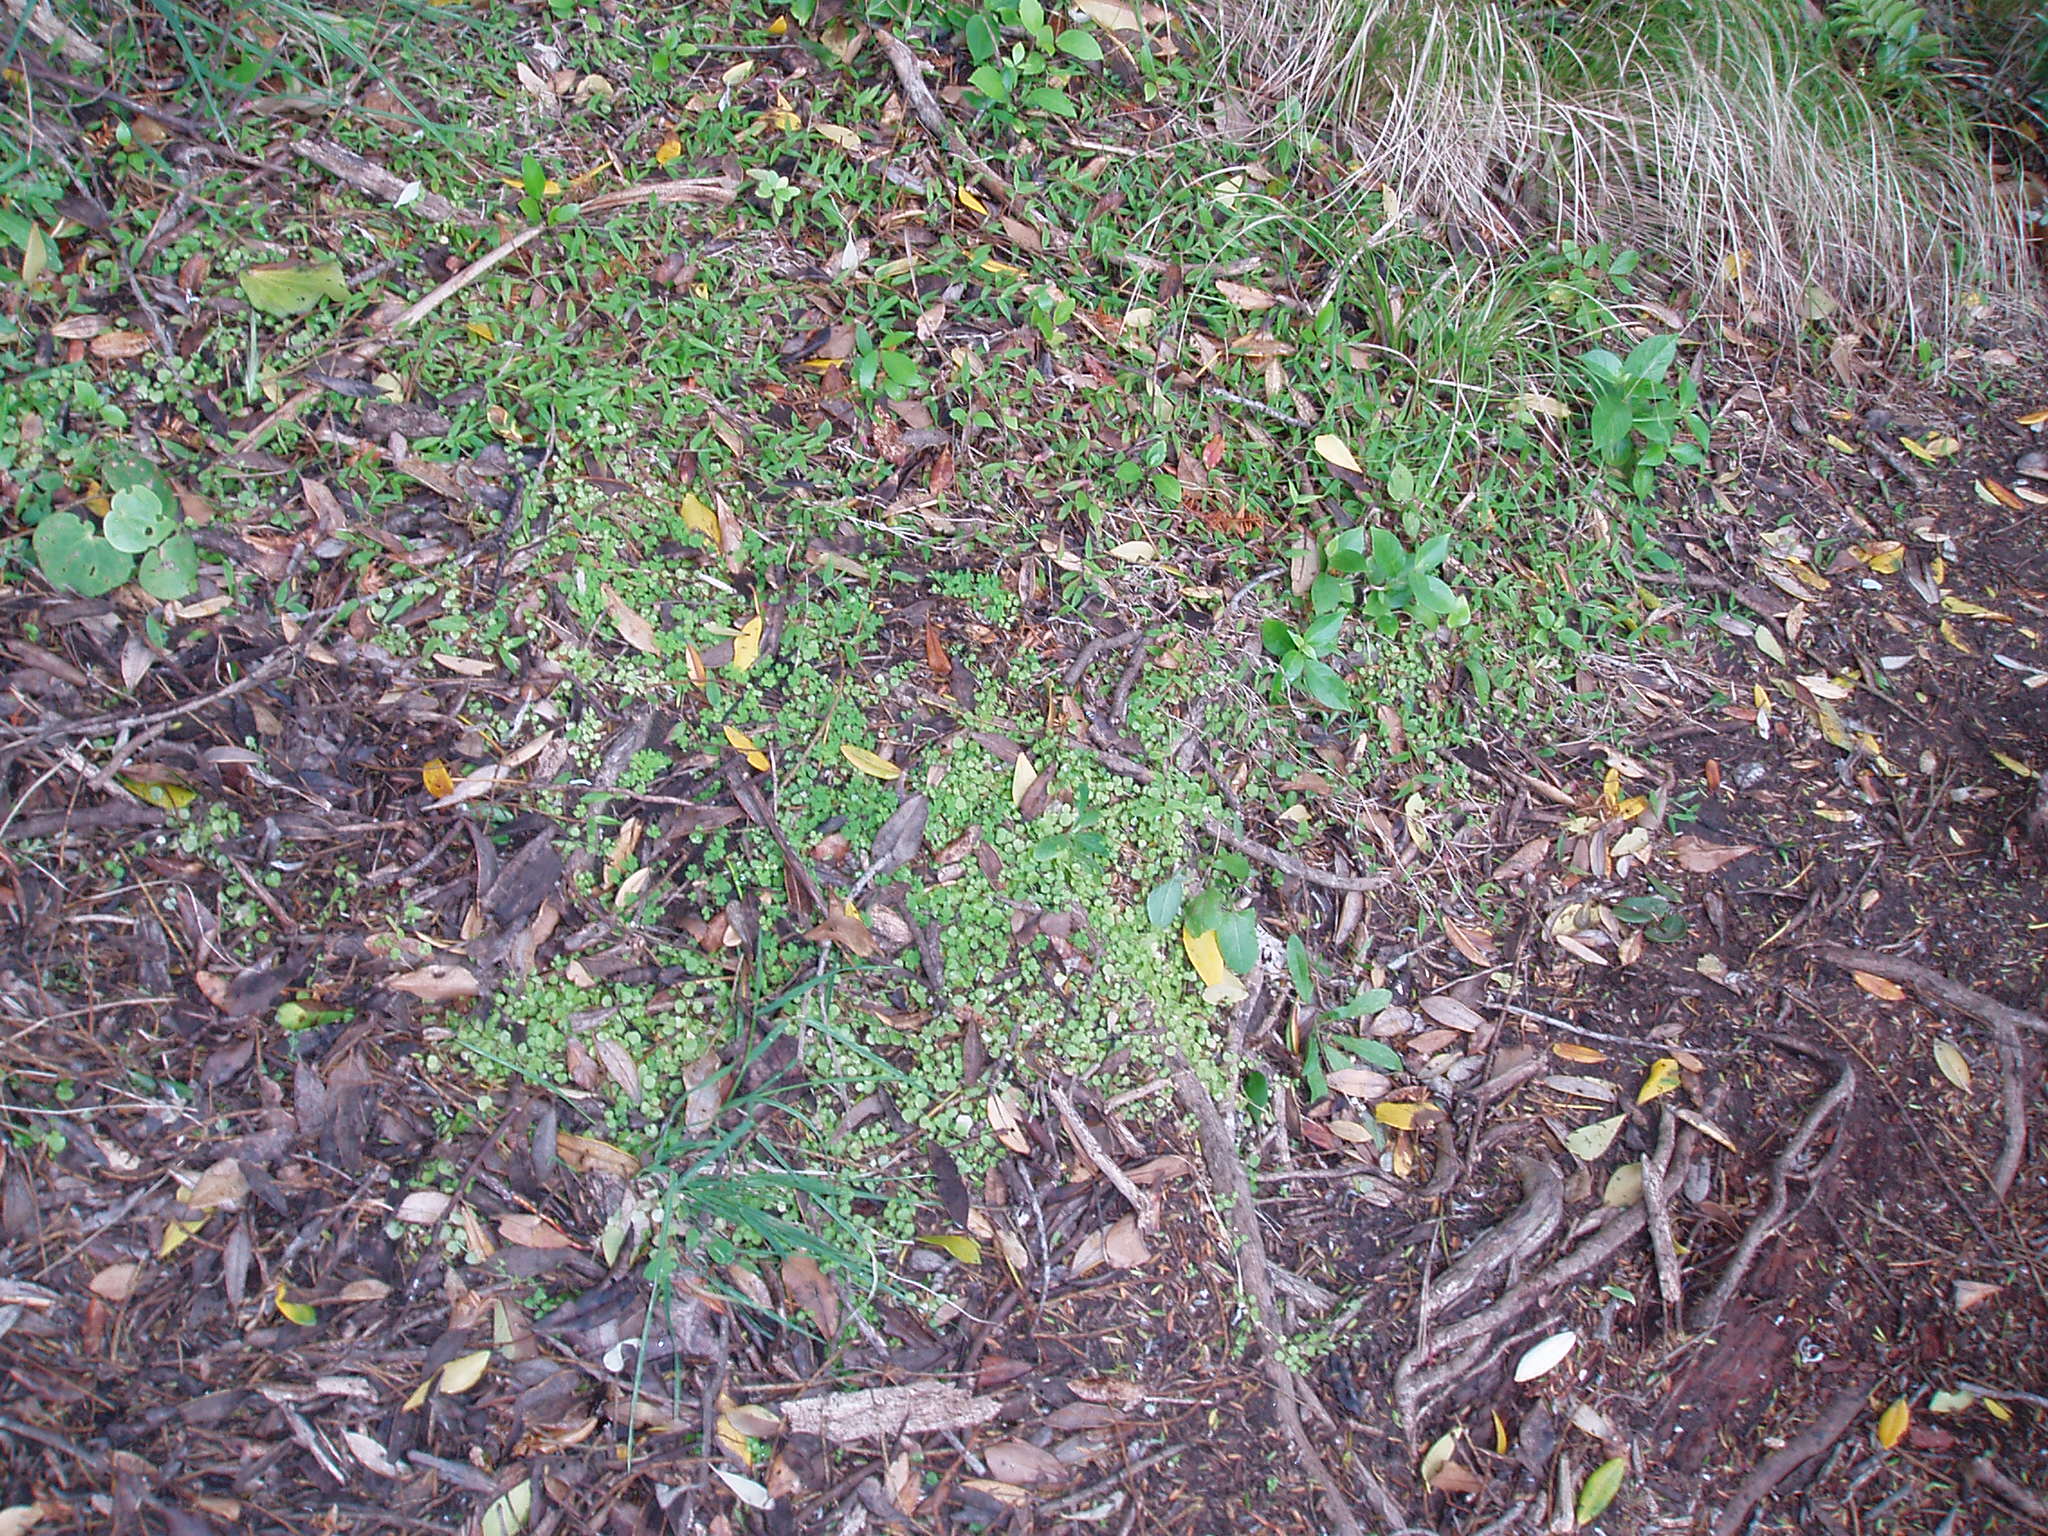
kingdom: Plantae
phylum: Tracheophyta
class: Magnoliopsida
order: Caryophyllales
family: Caryophyllaceae
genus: Stellaria
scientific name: Stellaria parviflora
